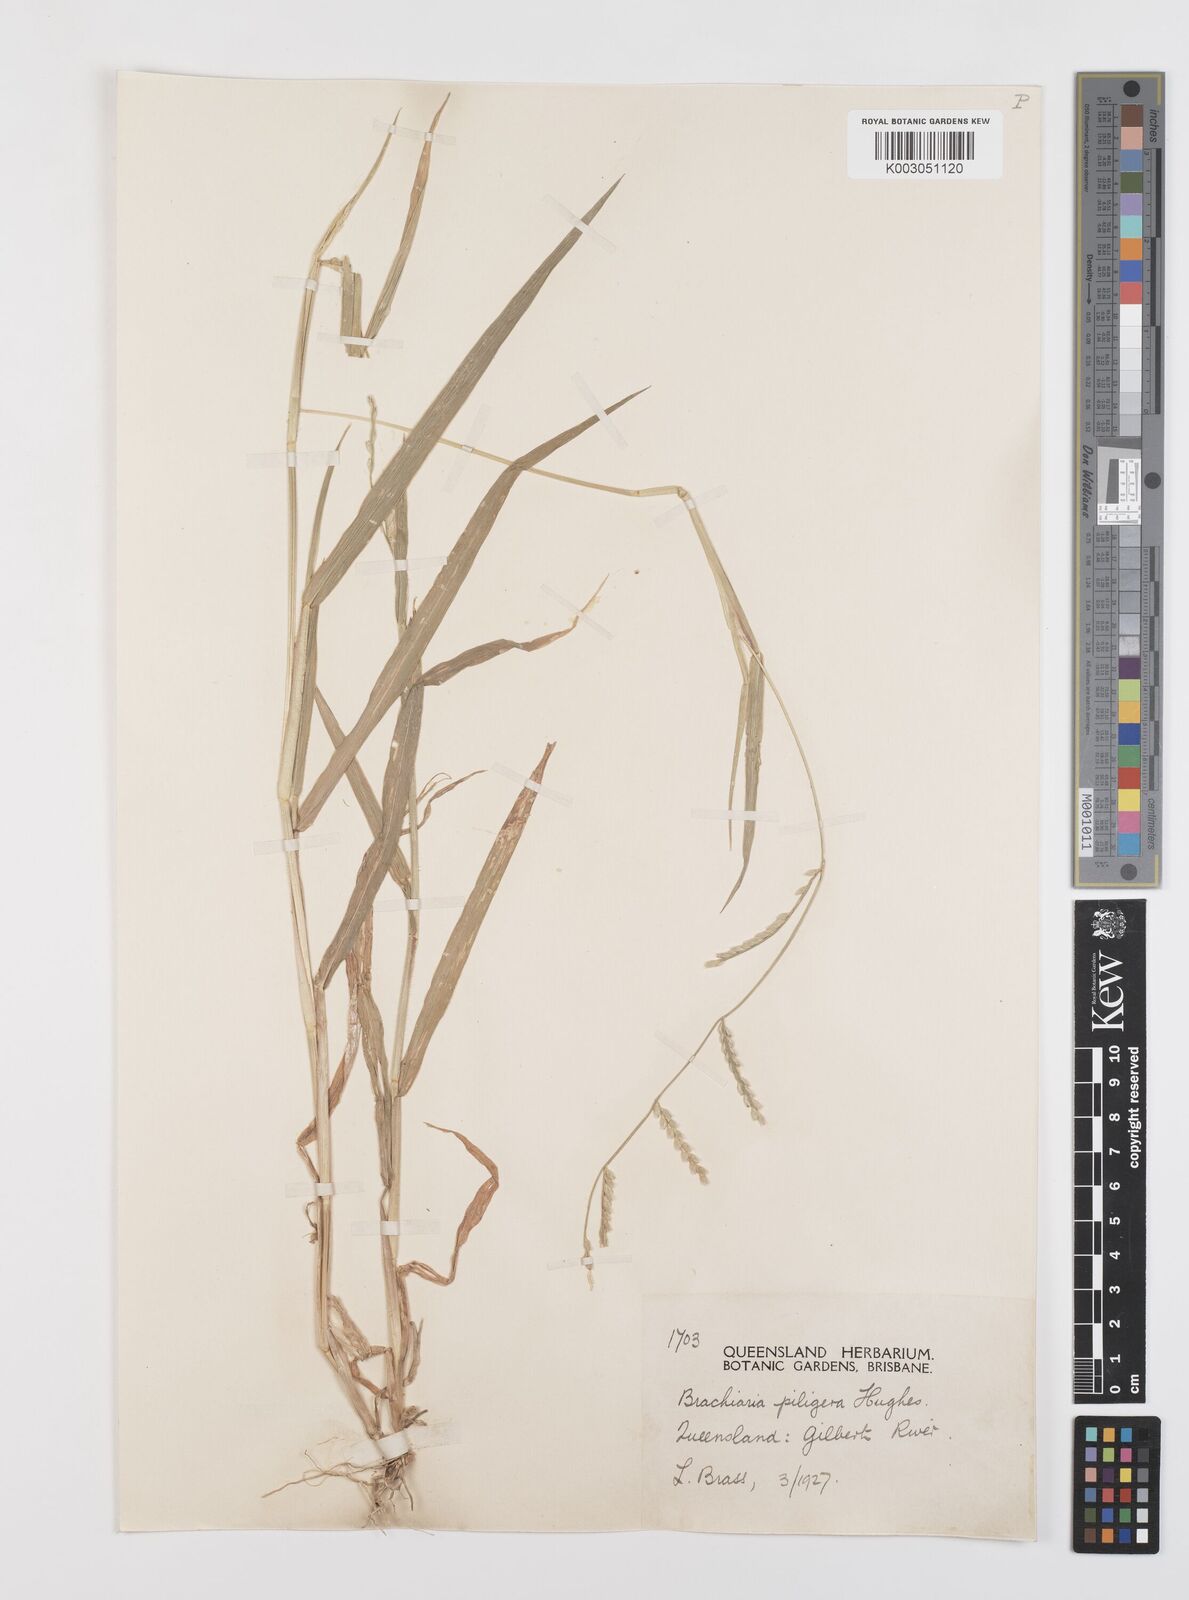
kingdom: Plantae
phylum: Tracheophyta
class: Liliopsida
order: Poales
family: Poaceae
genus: Urochloa
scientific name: Urochloa piligera
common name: Wattle signalgrass
